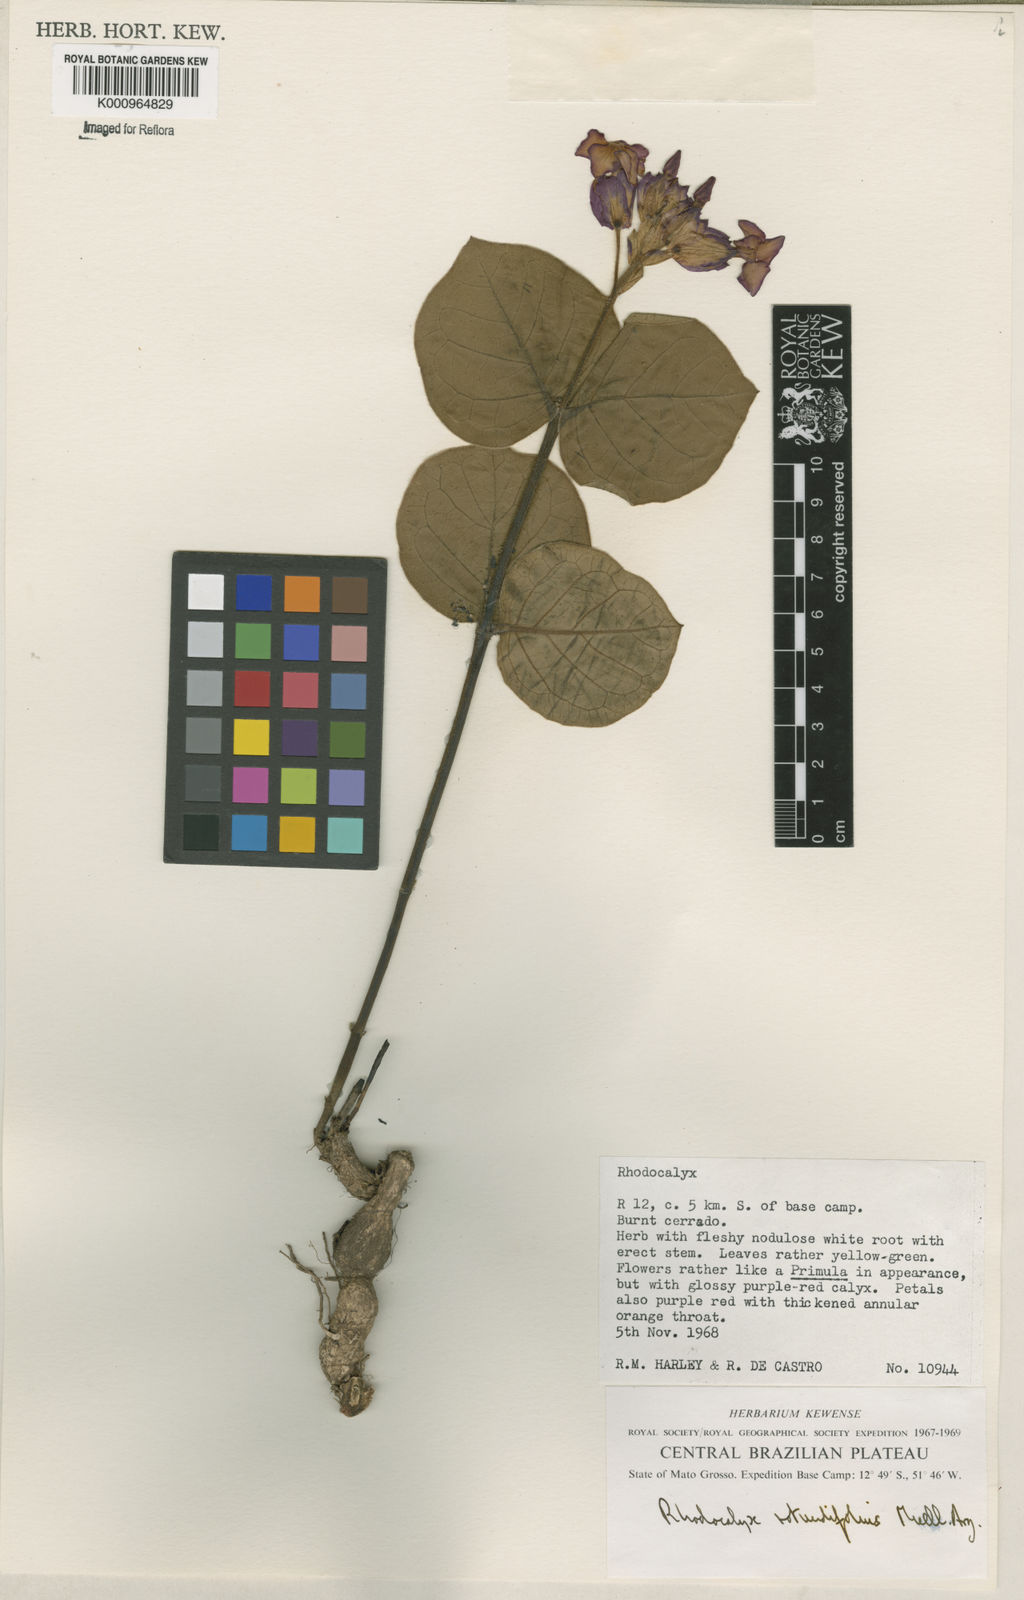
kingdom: Plantae
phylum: Tracheophyta
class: Magnoliopsida
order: Gentianales
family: Apocynaceae
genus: Rhodocalyx
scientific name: Rhodocalyx
